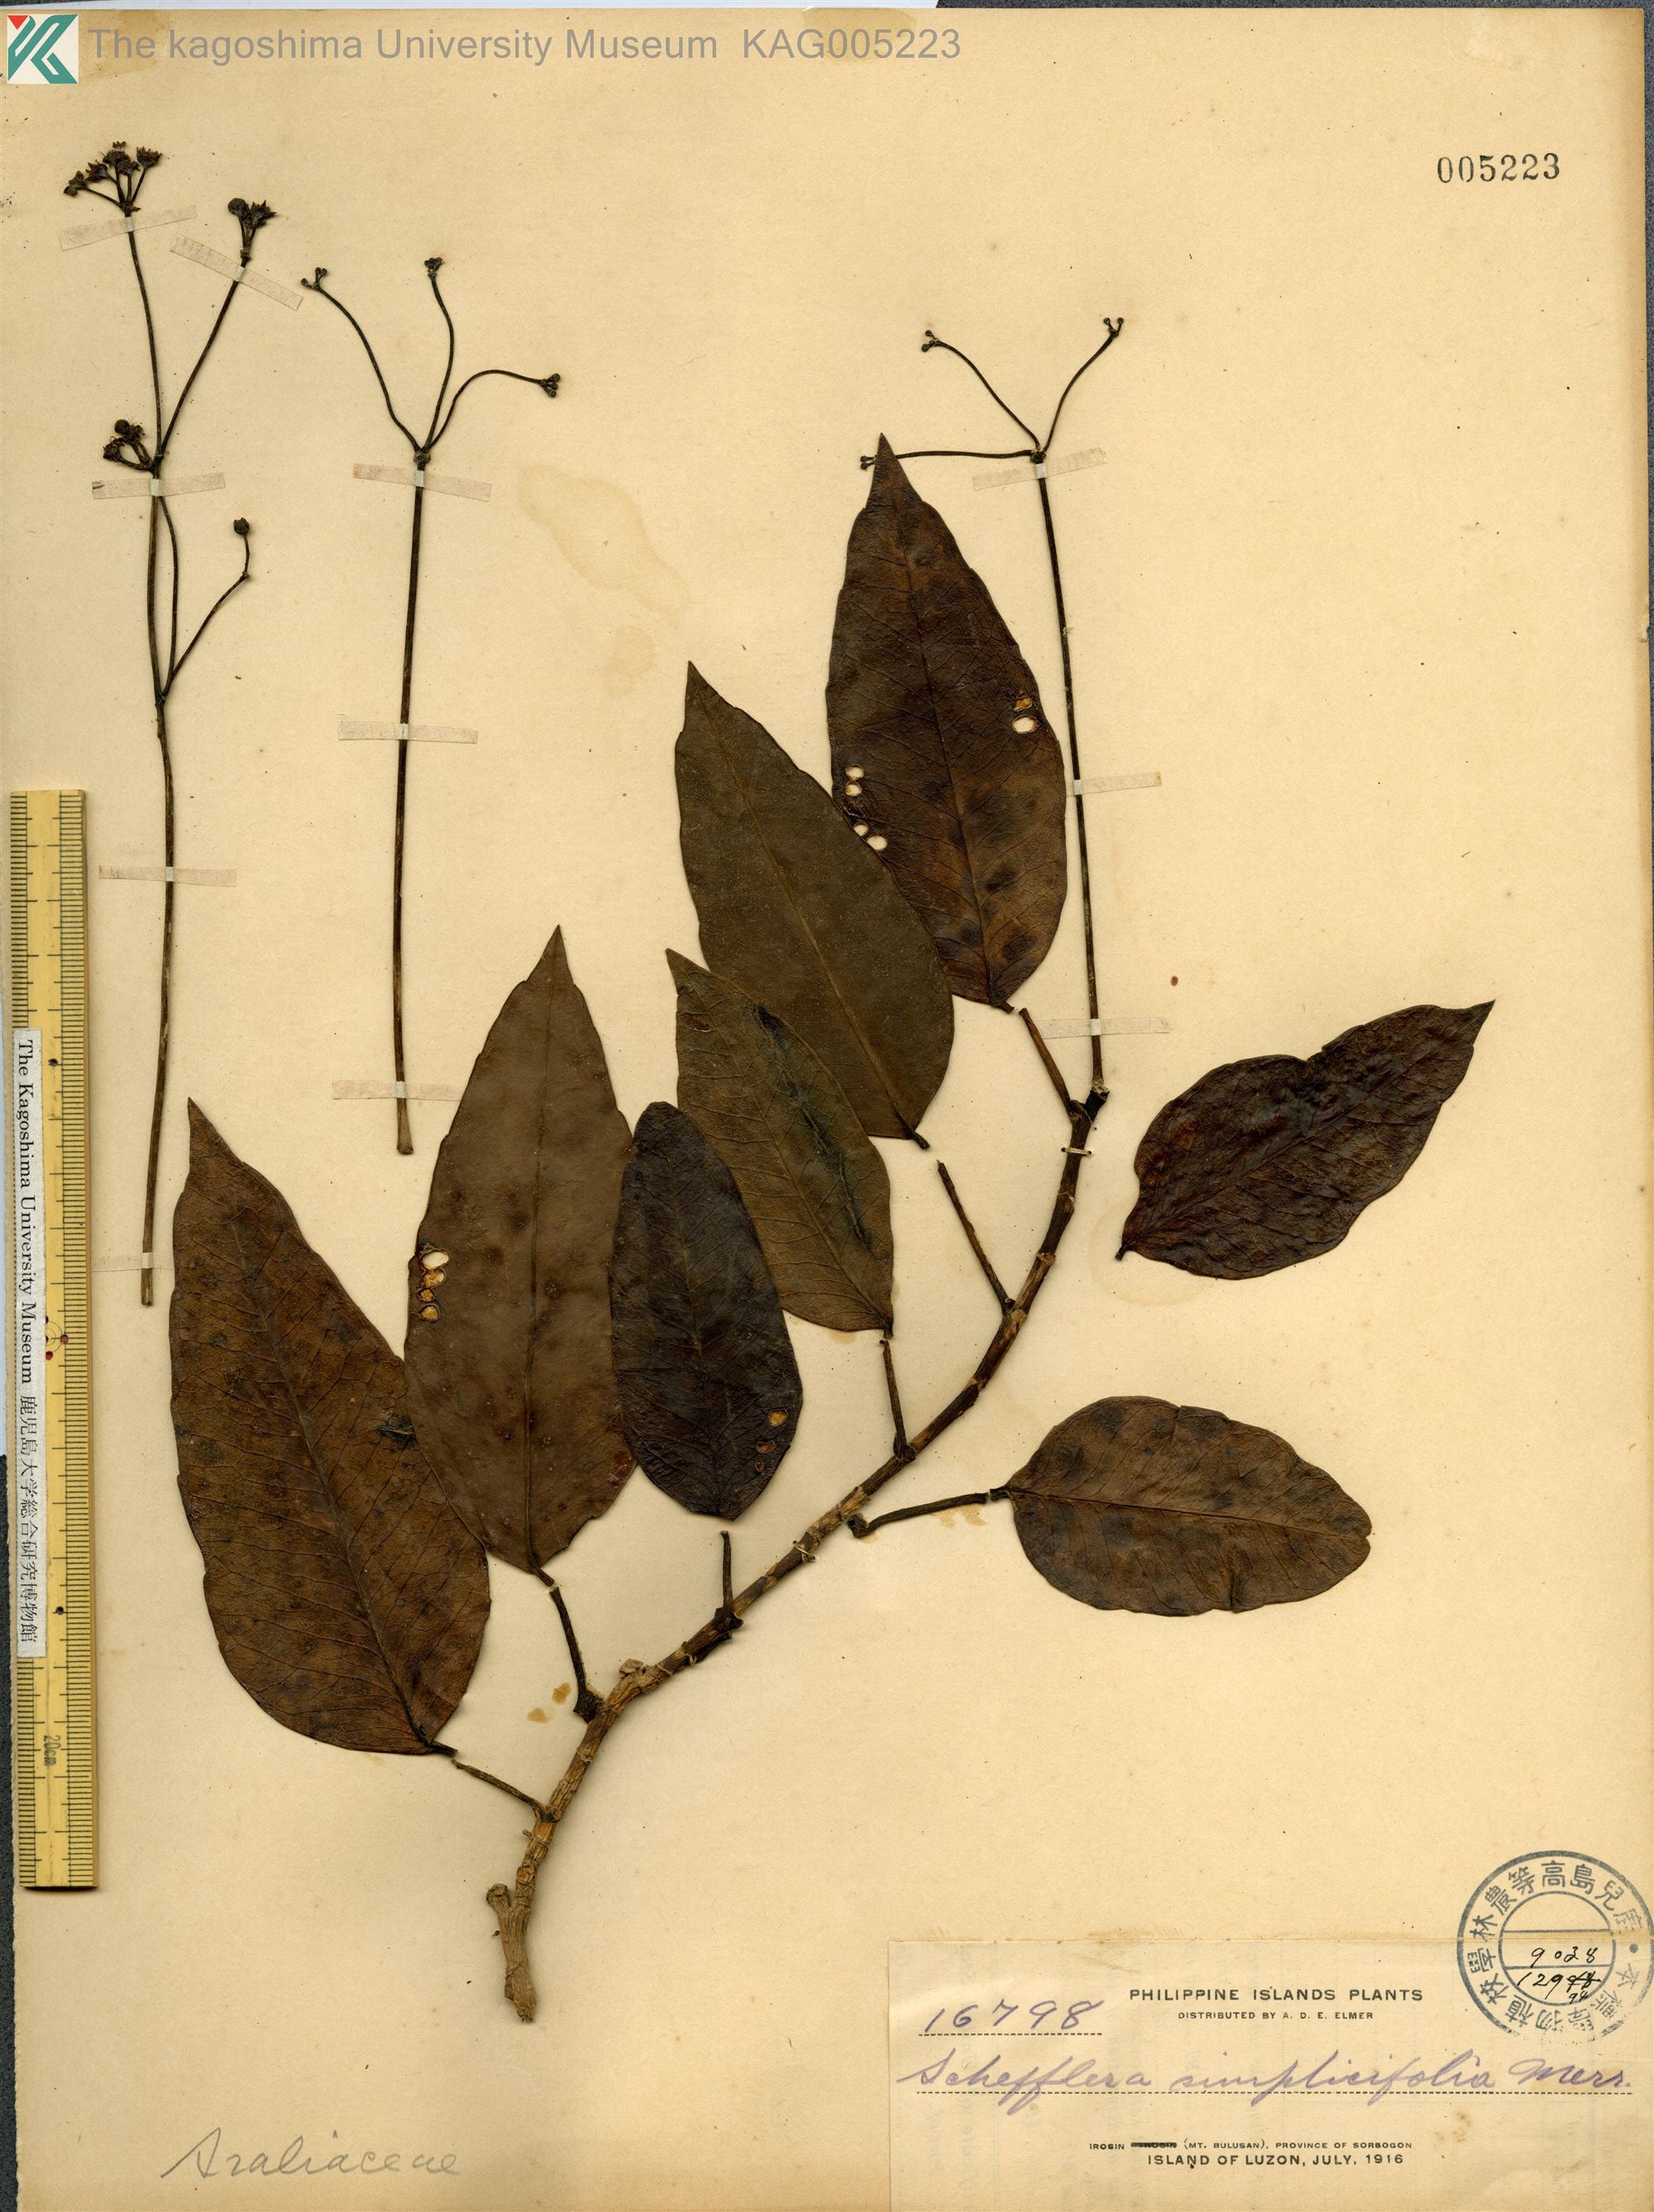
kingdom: Plantae
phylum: Tracheophyta
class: Magnoliopsida
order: Apiales
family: Araliaceae
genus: Heptapleurum
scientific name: Heptapleurum simplicifolium
